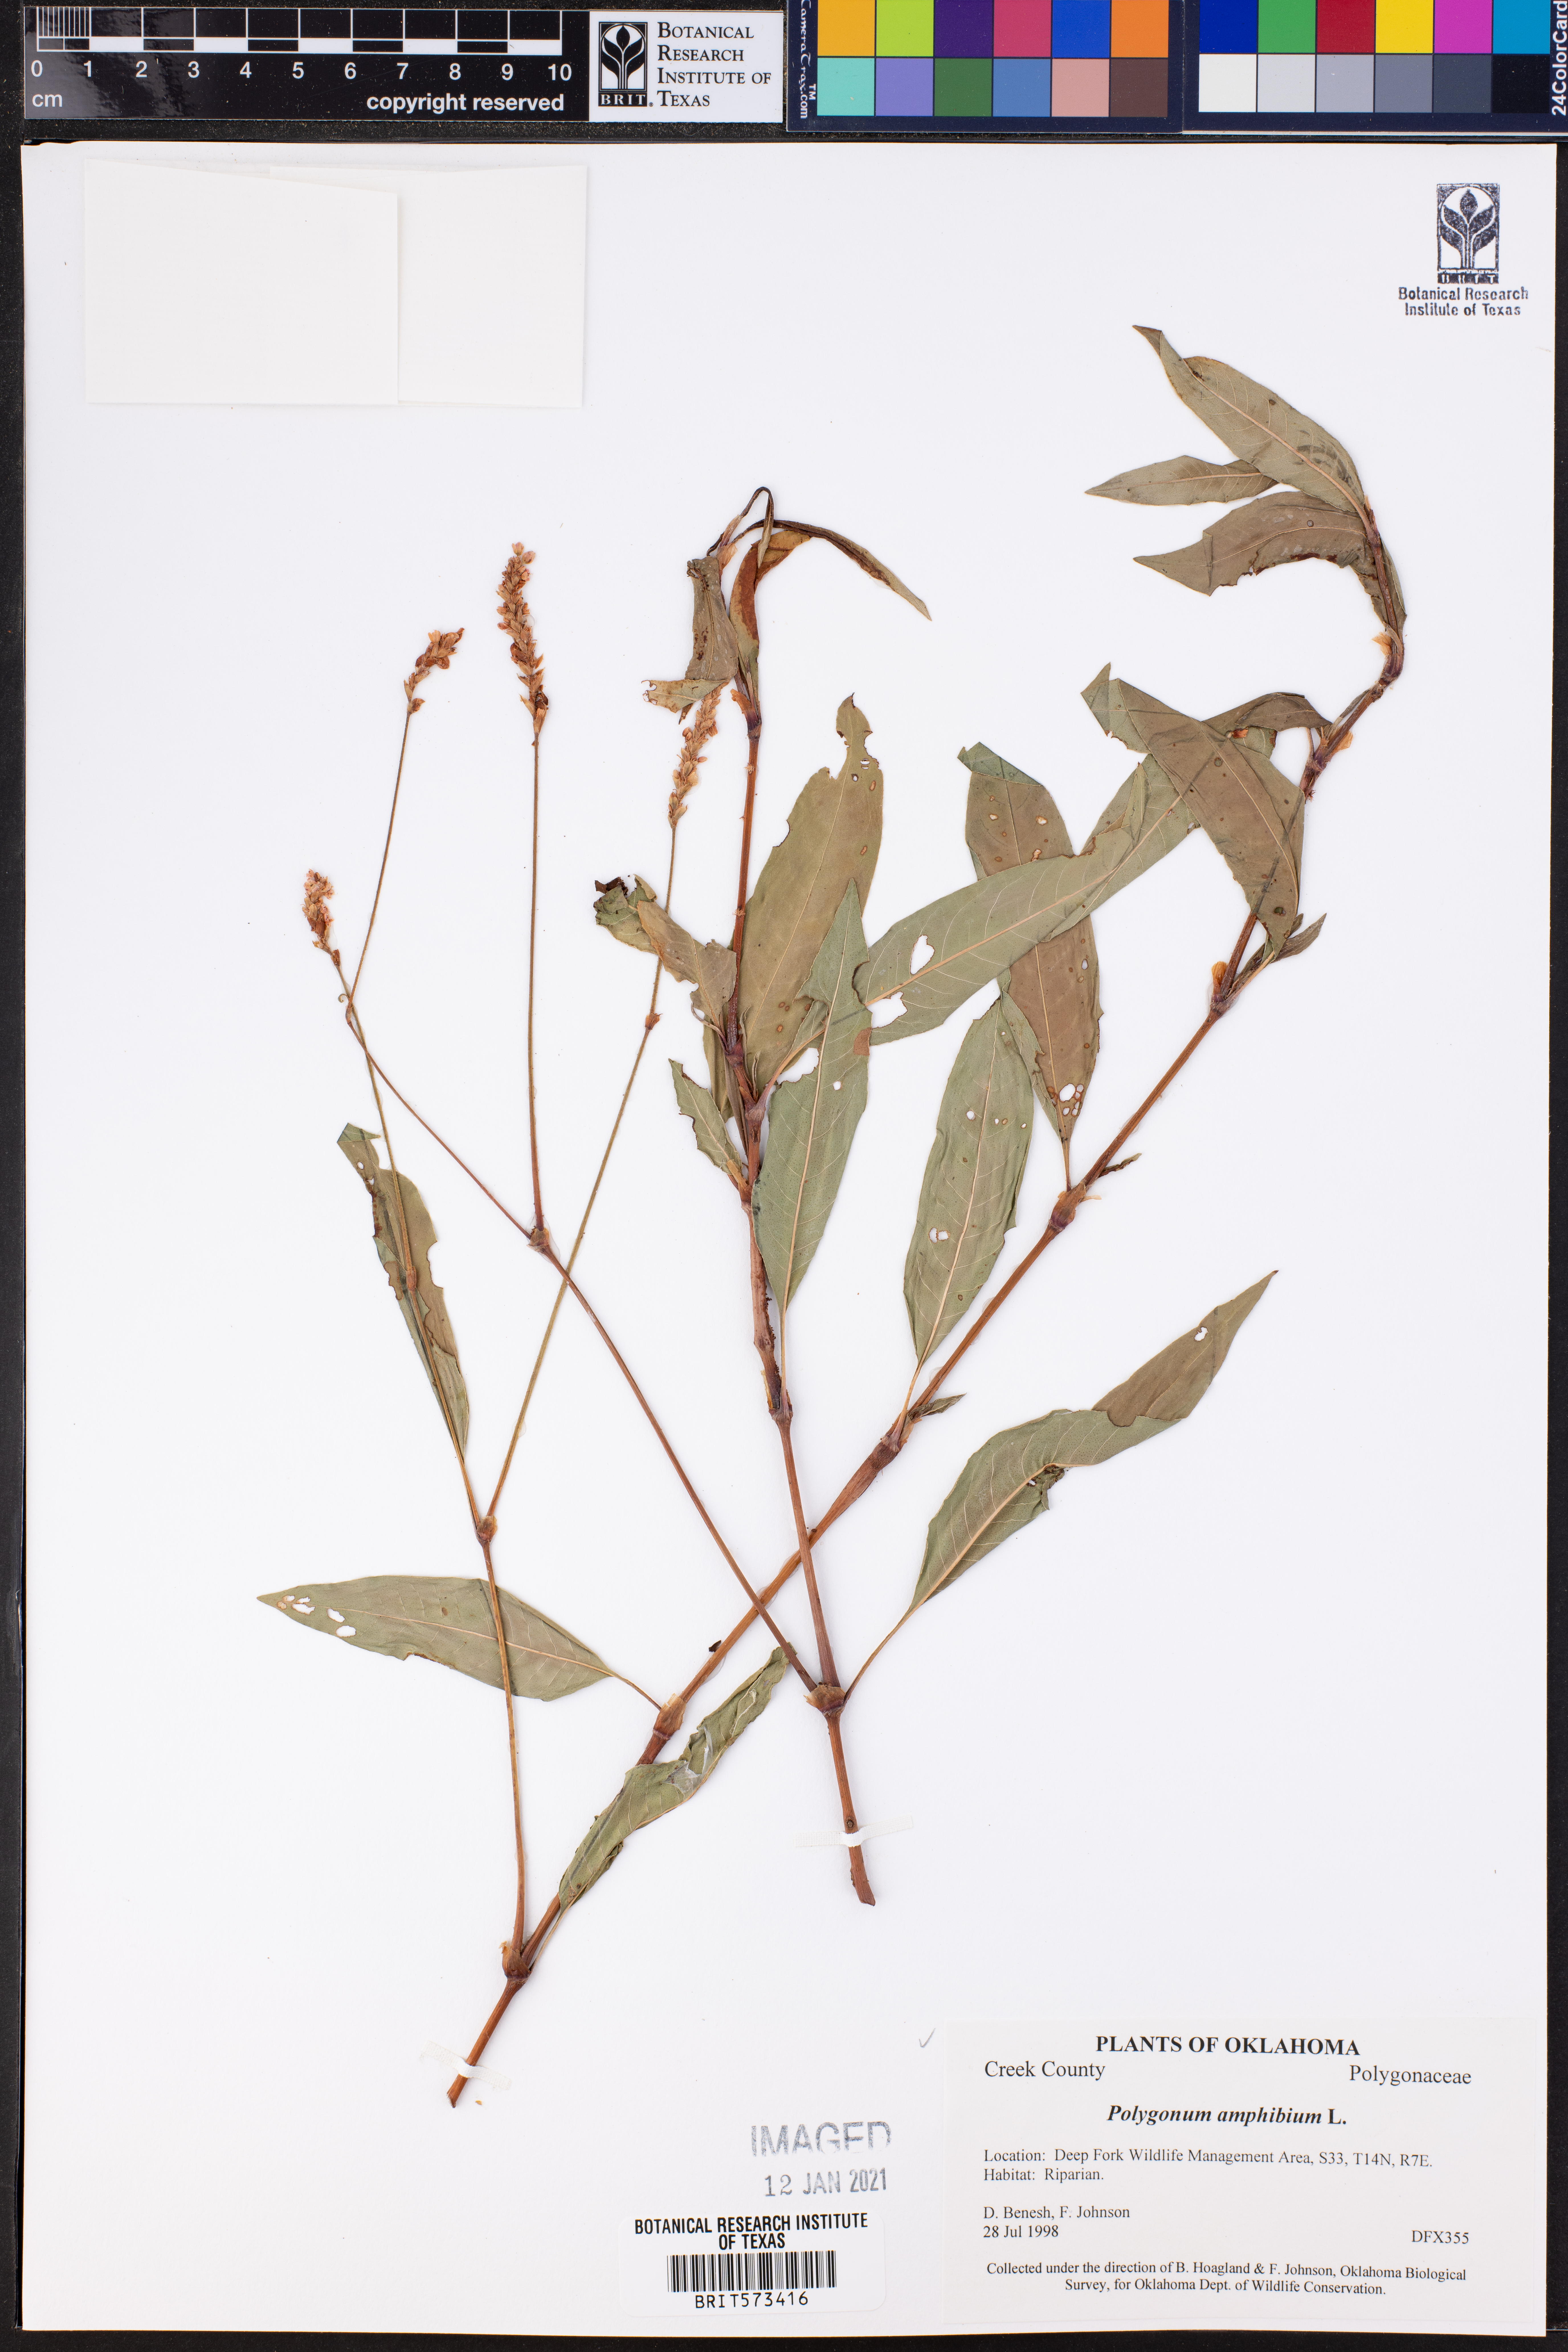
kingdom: Plantae
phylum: Tracheophyta
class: Magnoliopsida
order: Caryophyllales
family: Polygonaceae
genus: Persicaria
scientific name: Persicaria amphibia
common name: Amphibious bistort
